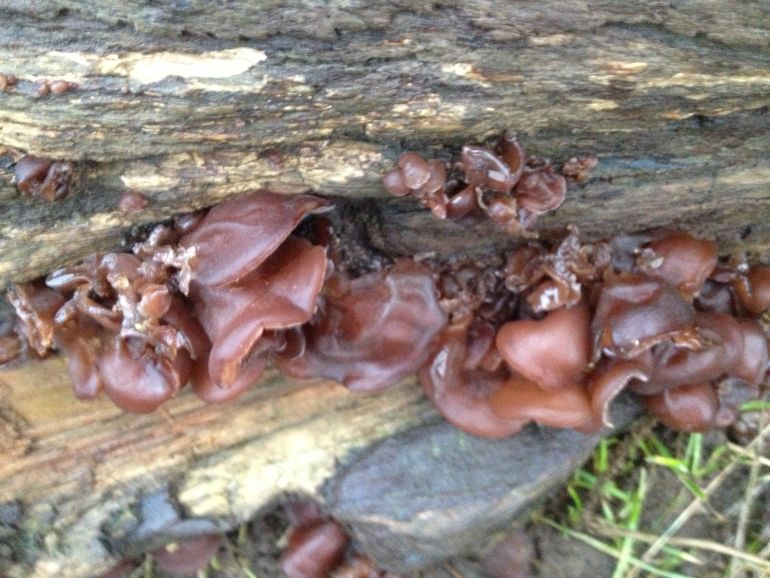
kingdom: Fungi
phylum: Basidiomycota
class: Agaricomycetes
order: Auriculariales
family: Auriculariaceae
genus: Auricularia
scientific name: Auricularia auricula-judae
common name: almindelig judasøre
